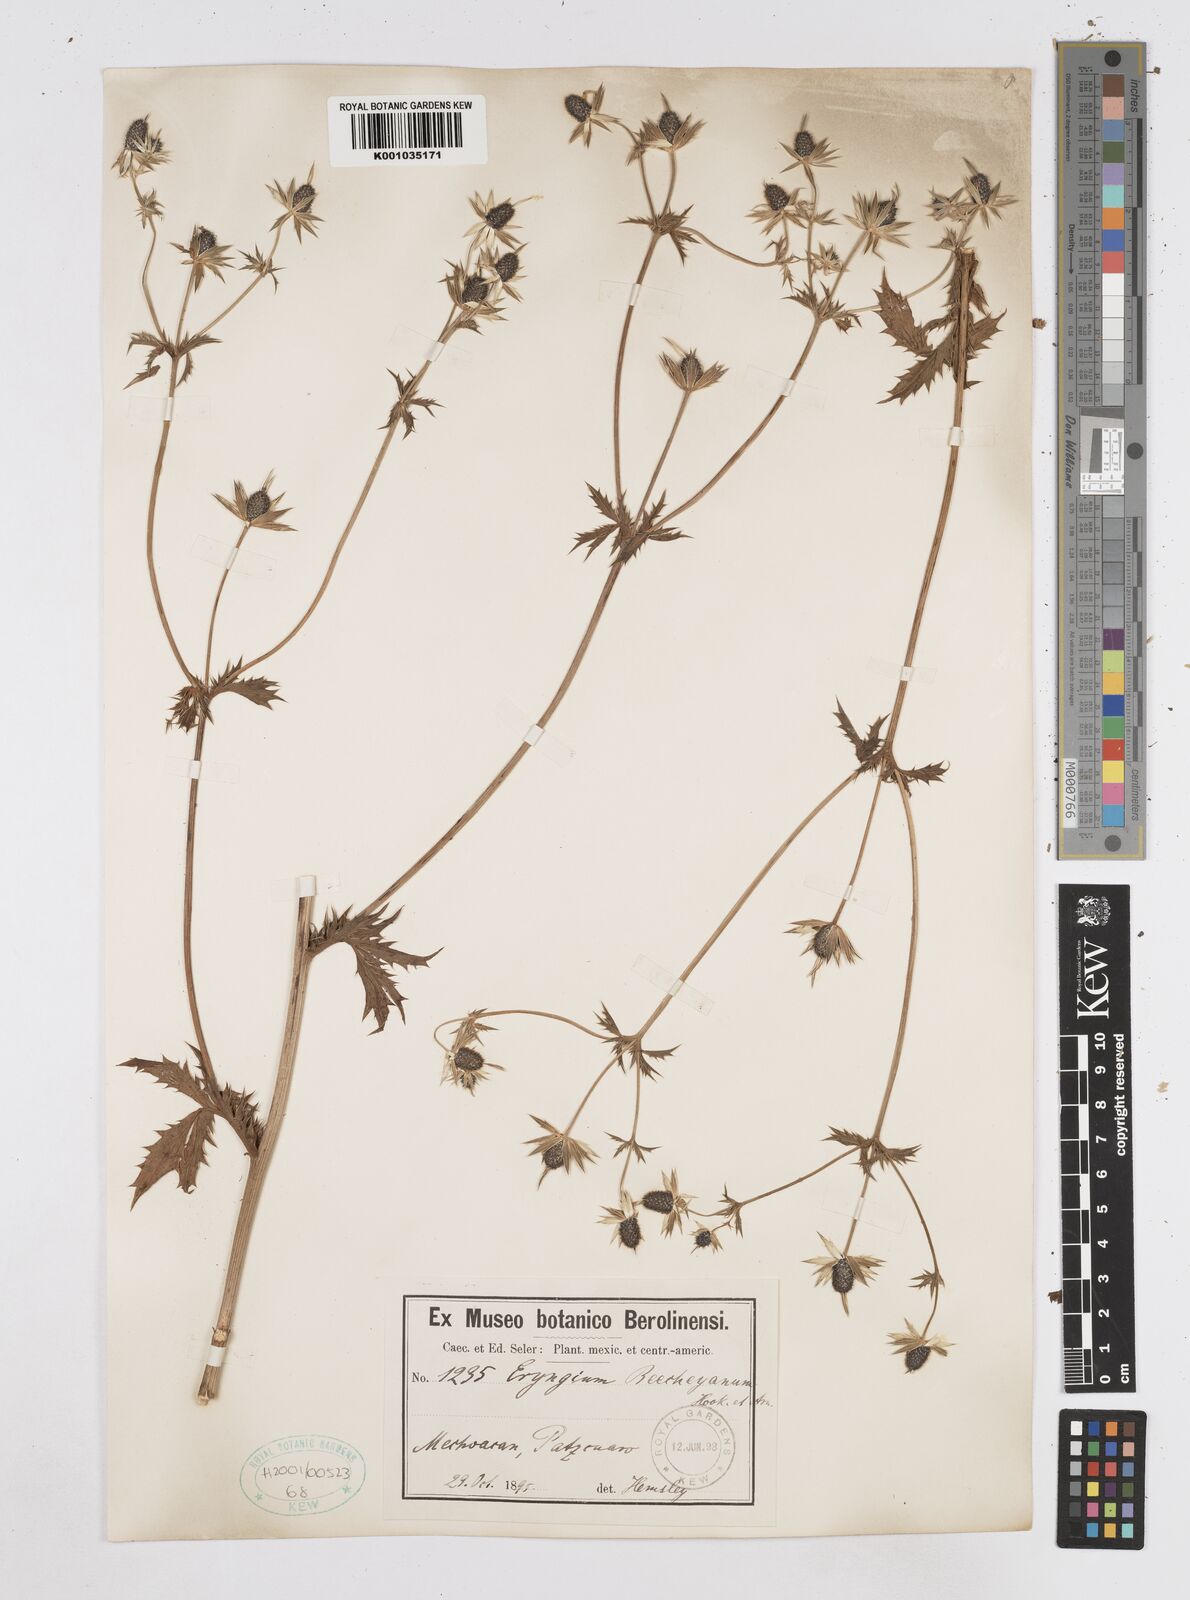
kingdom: Plantae
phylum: Tracheophyta
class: Magnoliopsida
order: Apiales
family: Apiaceae
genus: Eryngium
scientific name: Eryngium beecheyanum
